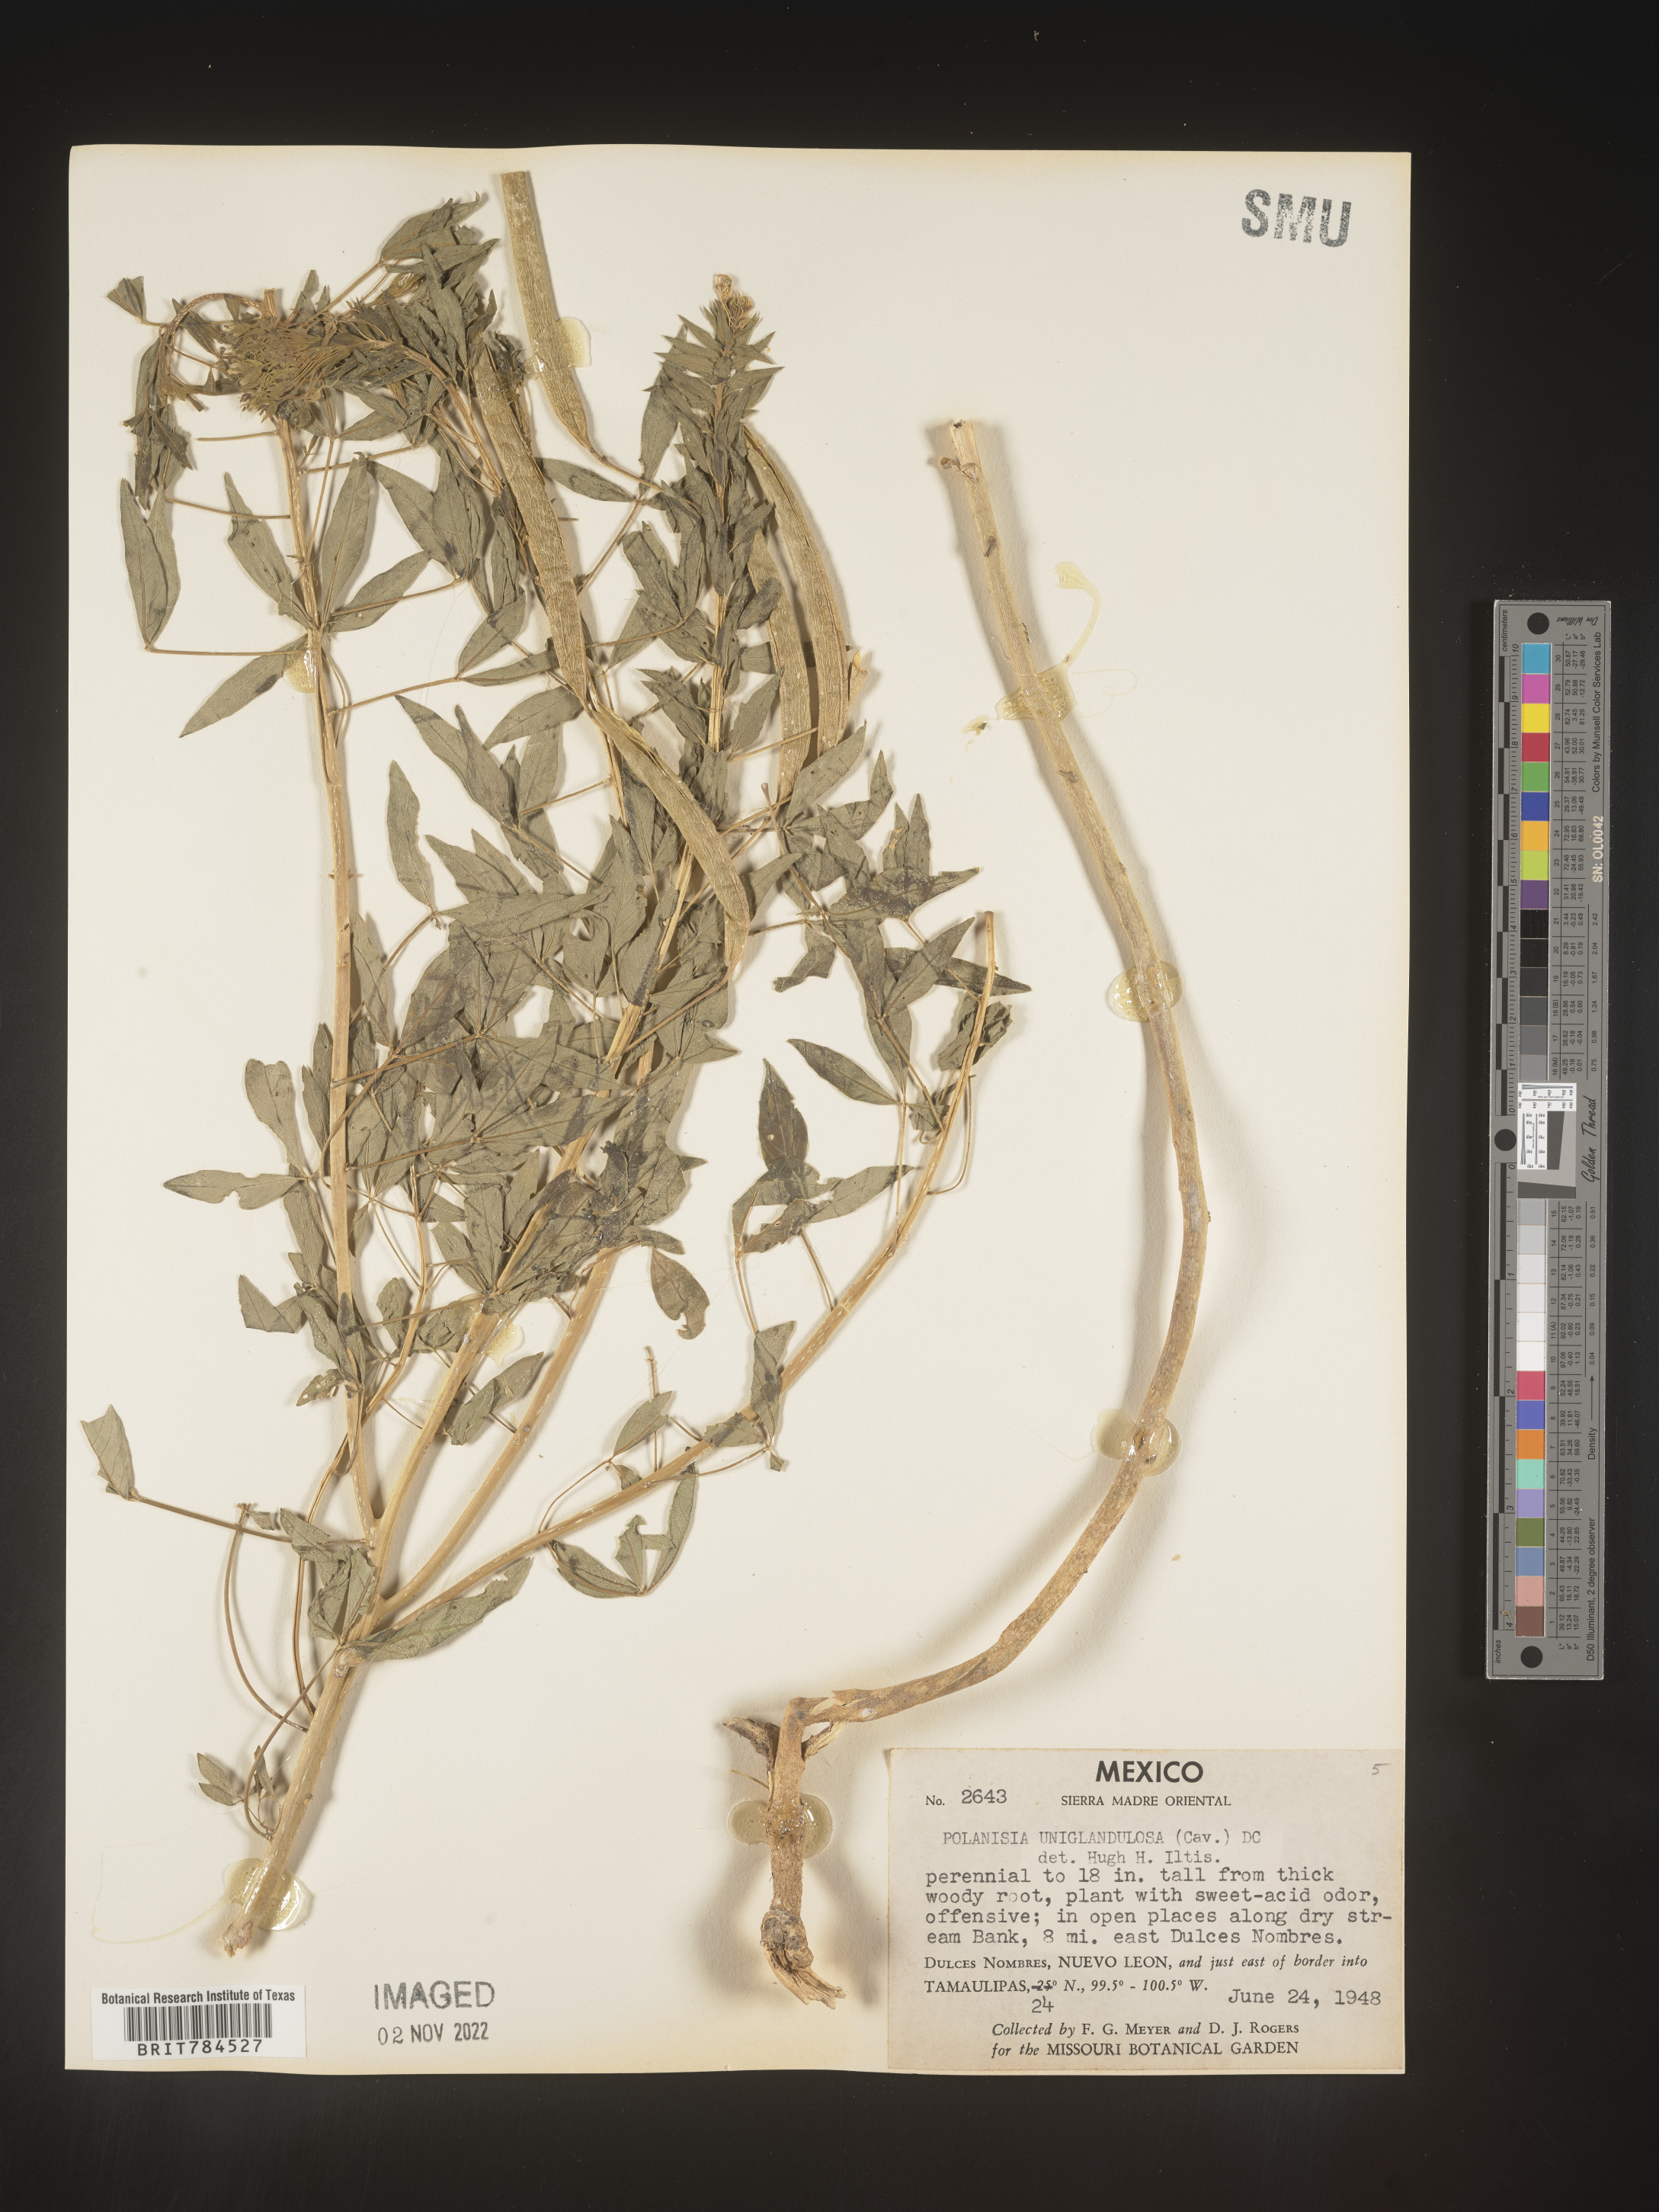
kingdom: Plantae
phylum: Tracheophyta
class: Magnoliopsida
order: Brassicales
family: Cleomaceae
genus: Polanisia
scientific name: Polanisia
